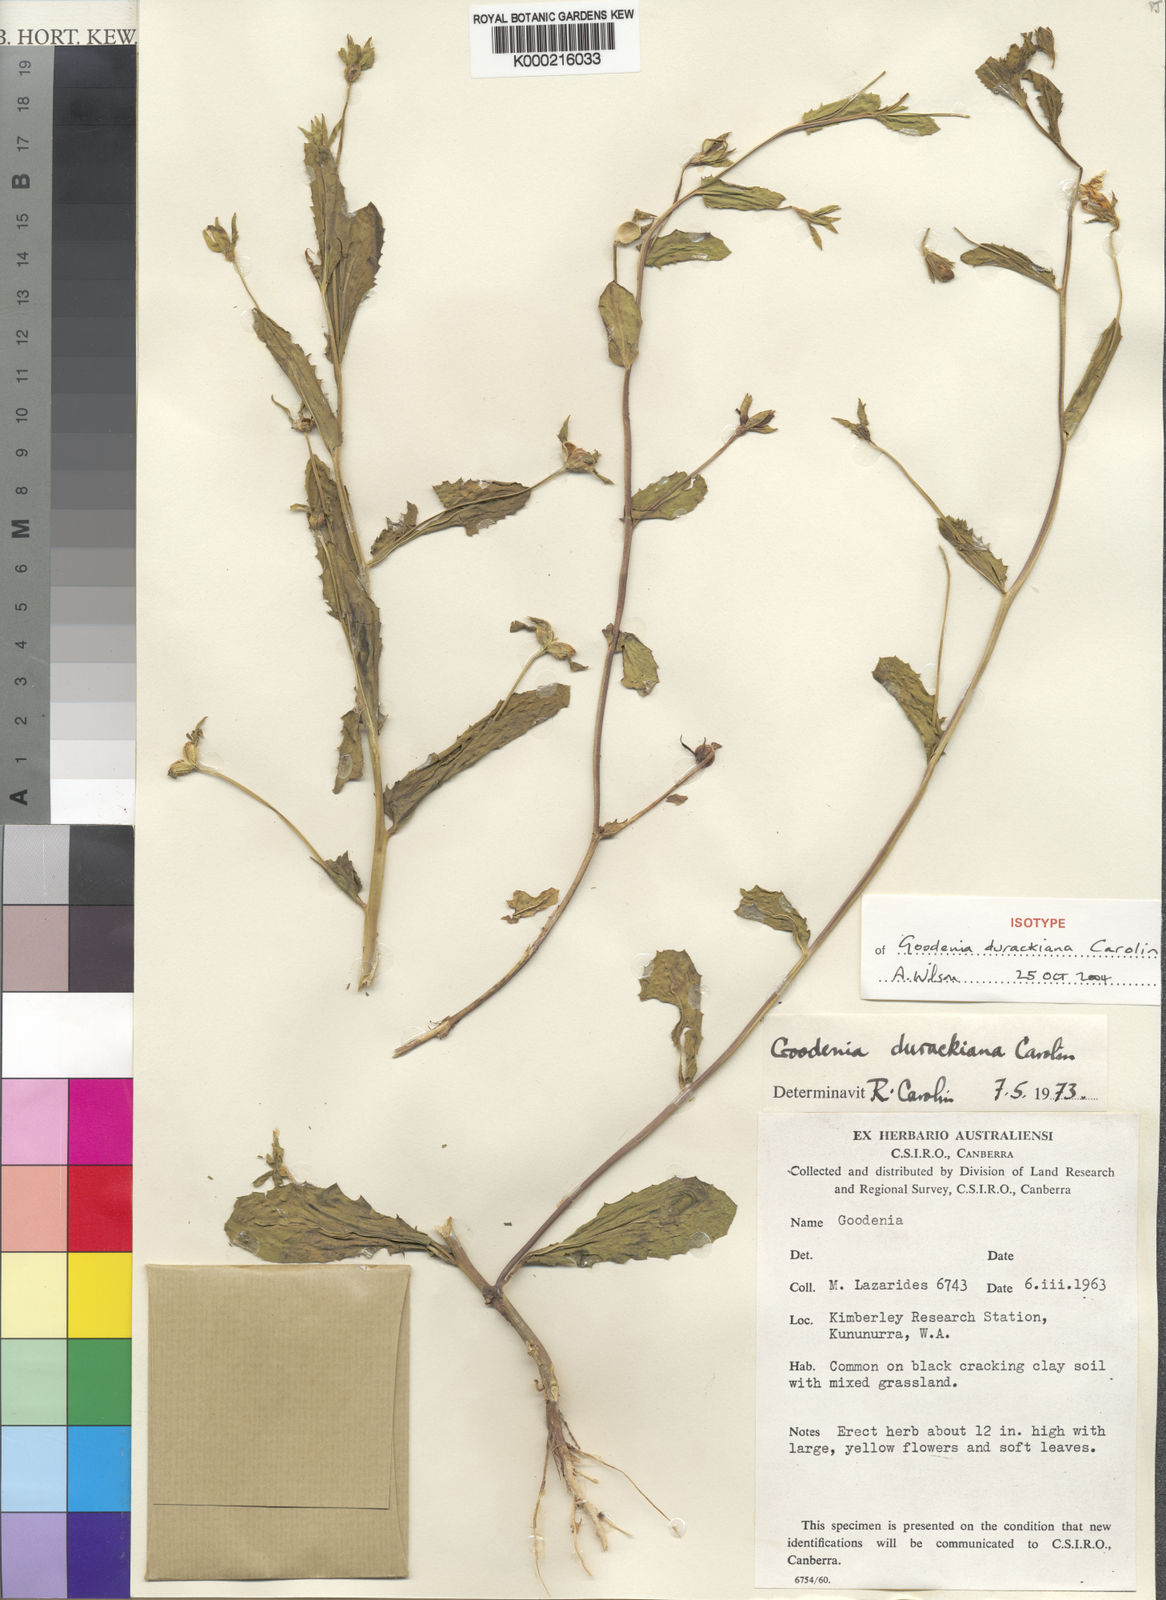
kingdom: Plantae
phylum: Tracheophyta
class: Magnoliopsida
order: Asterales
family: Goodeniaceae
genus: Goodenia
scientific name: Goodenia durackiana
